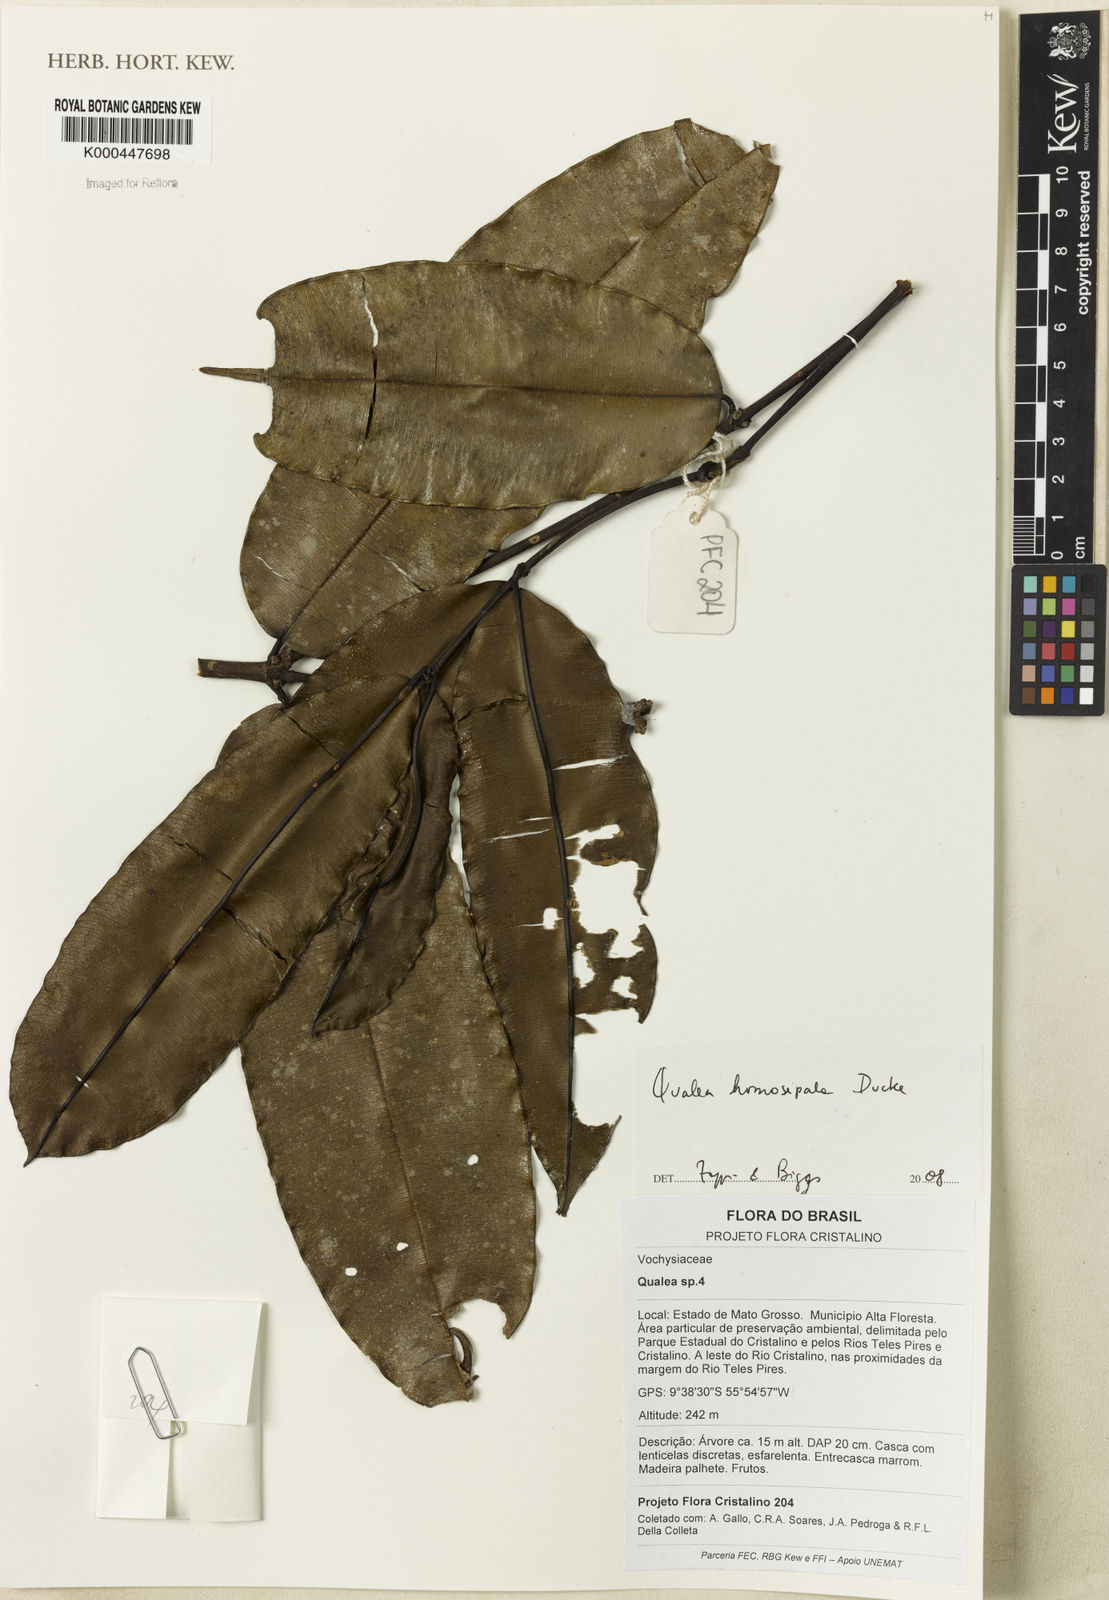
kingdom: Plantae
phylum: Tracheophyta
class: Magnoliopsida
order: Myrtales
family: Vochysiaceae
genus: Qualea
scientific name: Qualea homosepala
